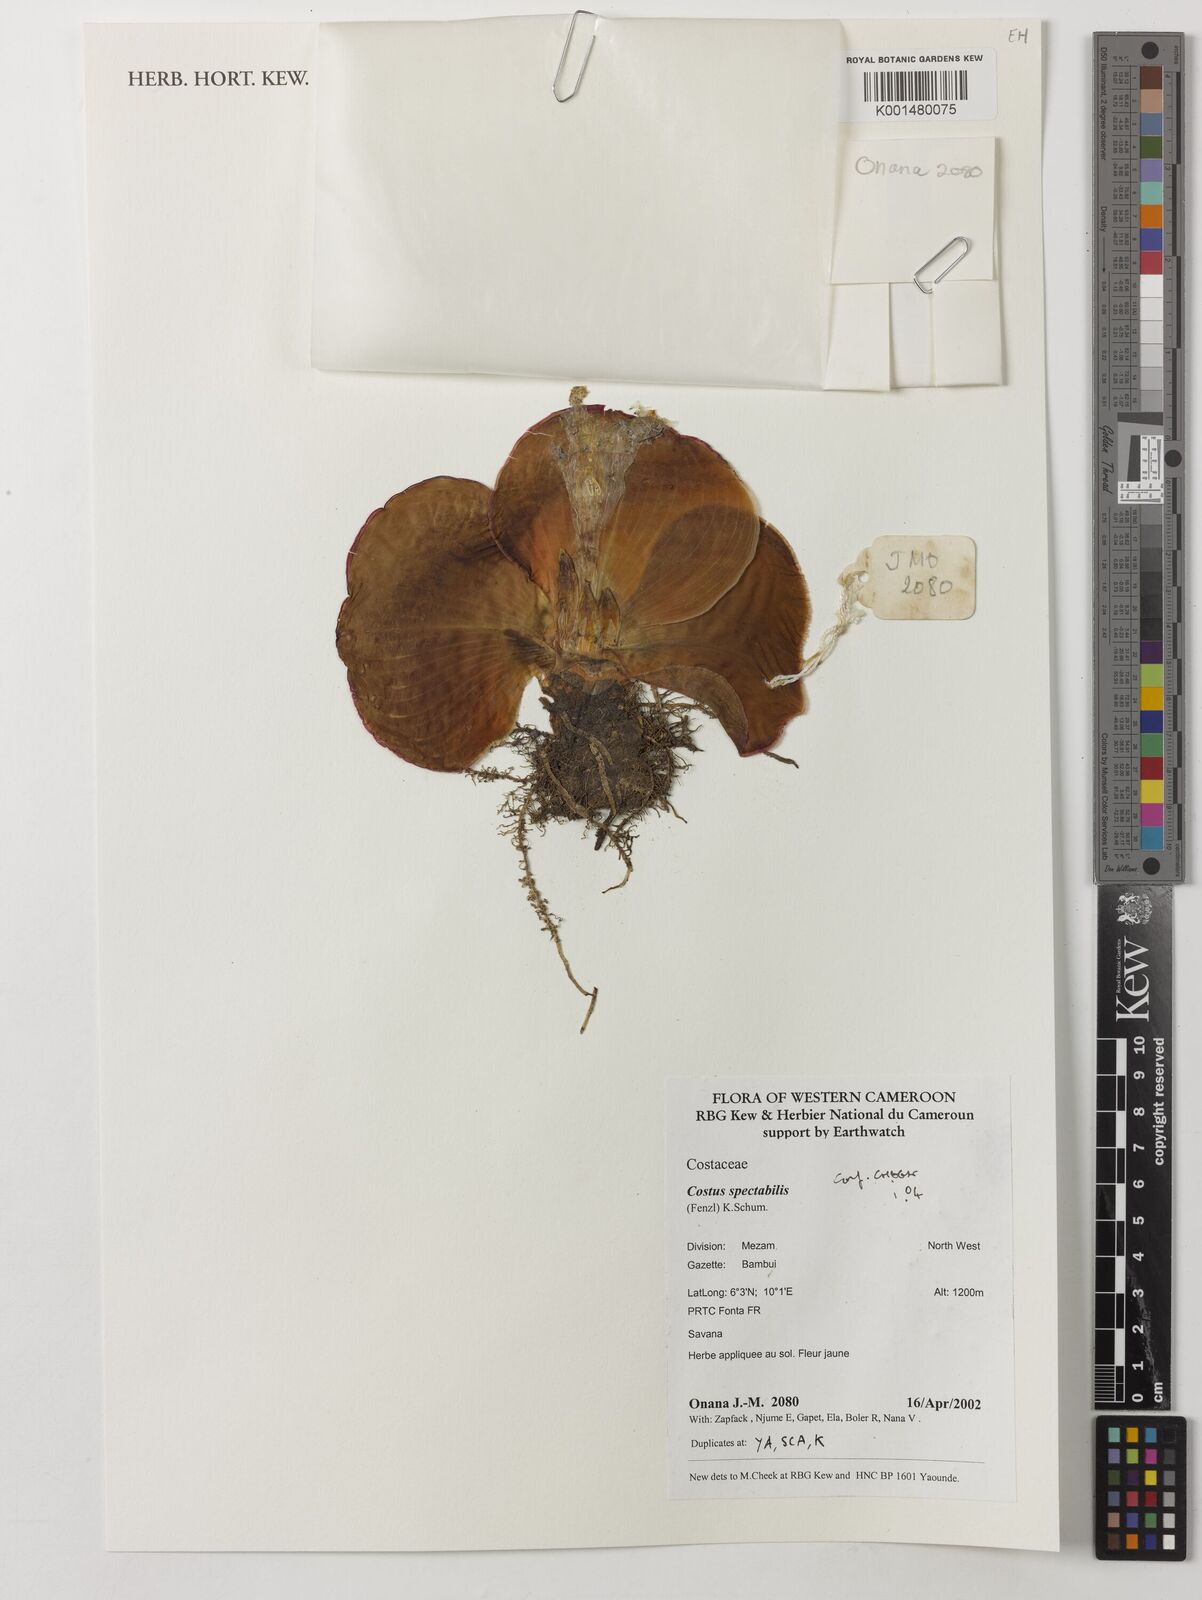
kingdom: Plantae
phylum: Tracheophyta
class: Liliopsida
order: Zingiberales
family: Costaceae
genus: Costus
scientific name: Costus spectabilis
